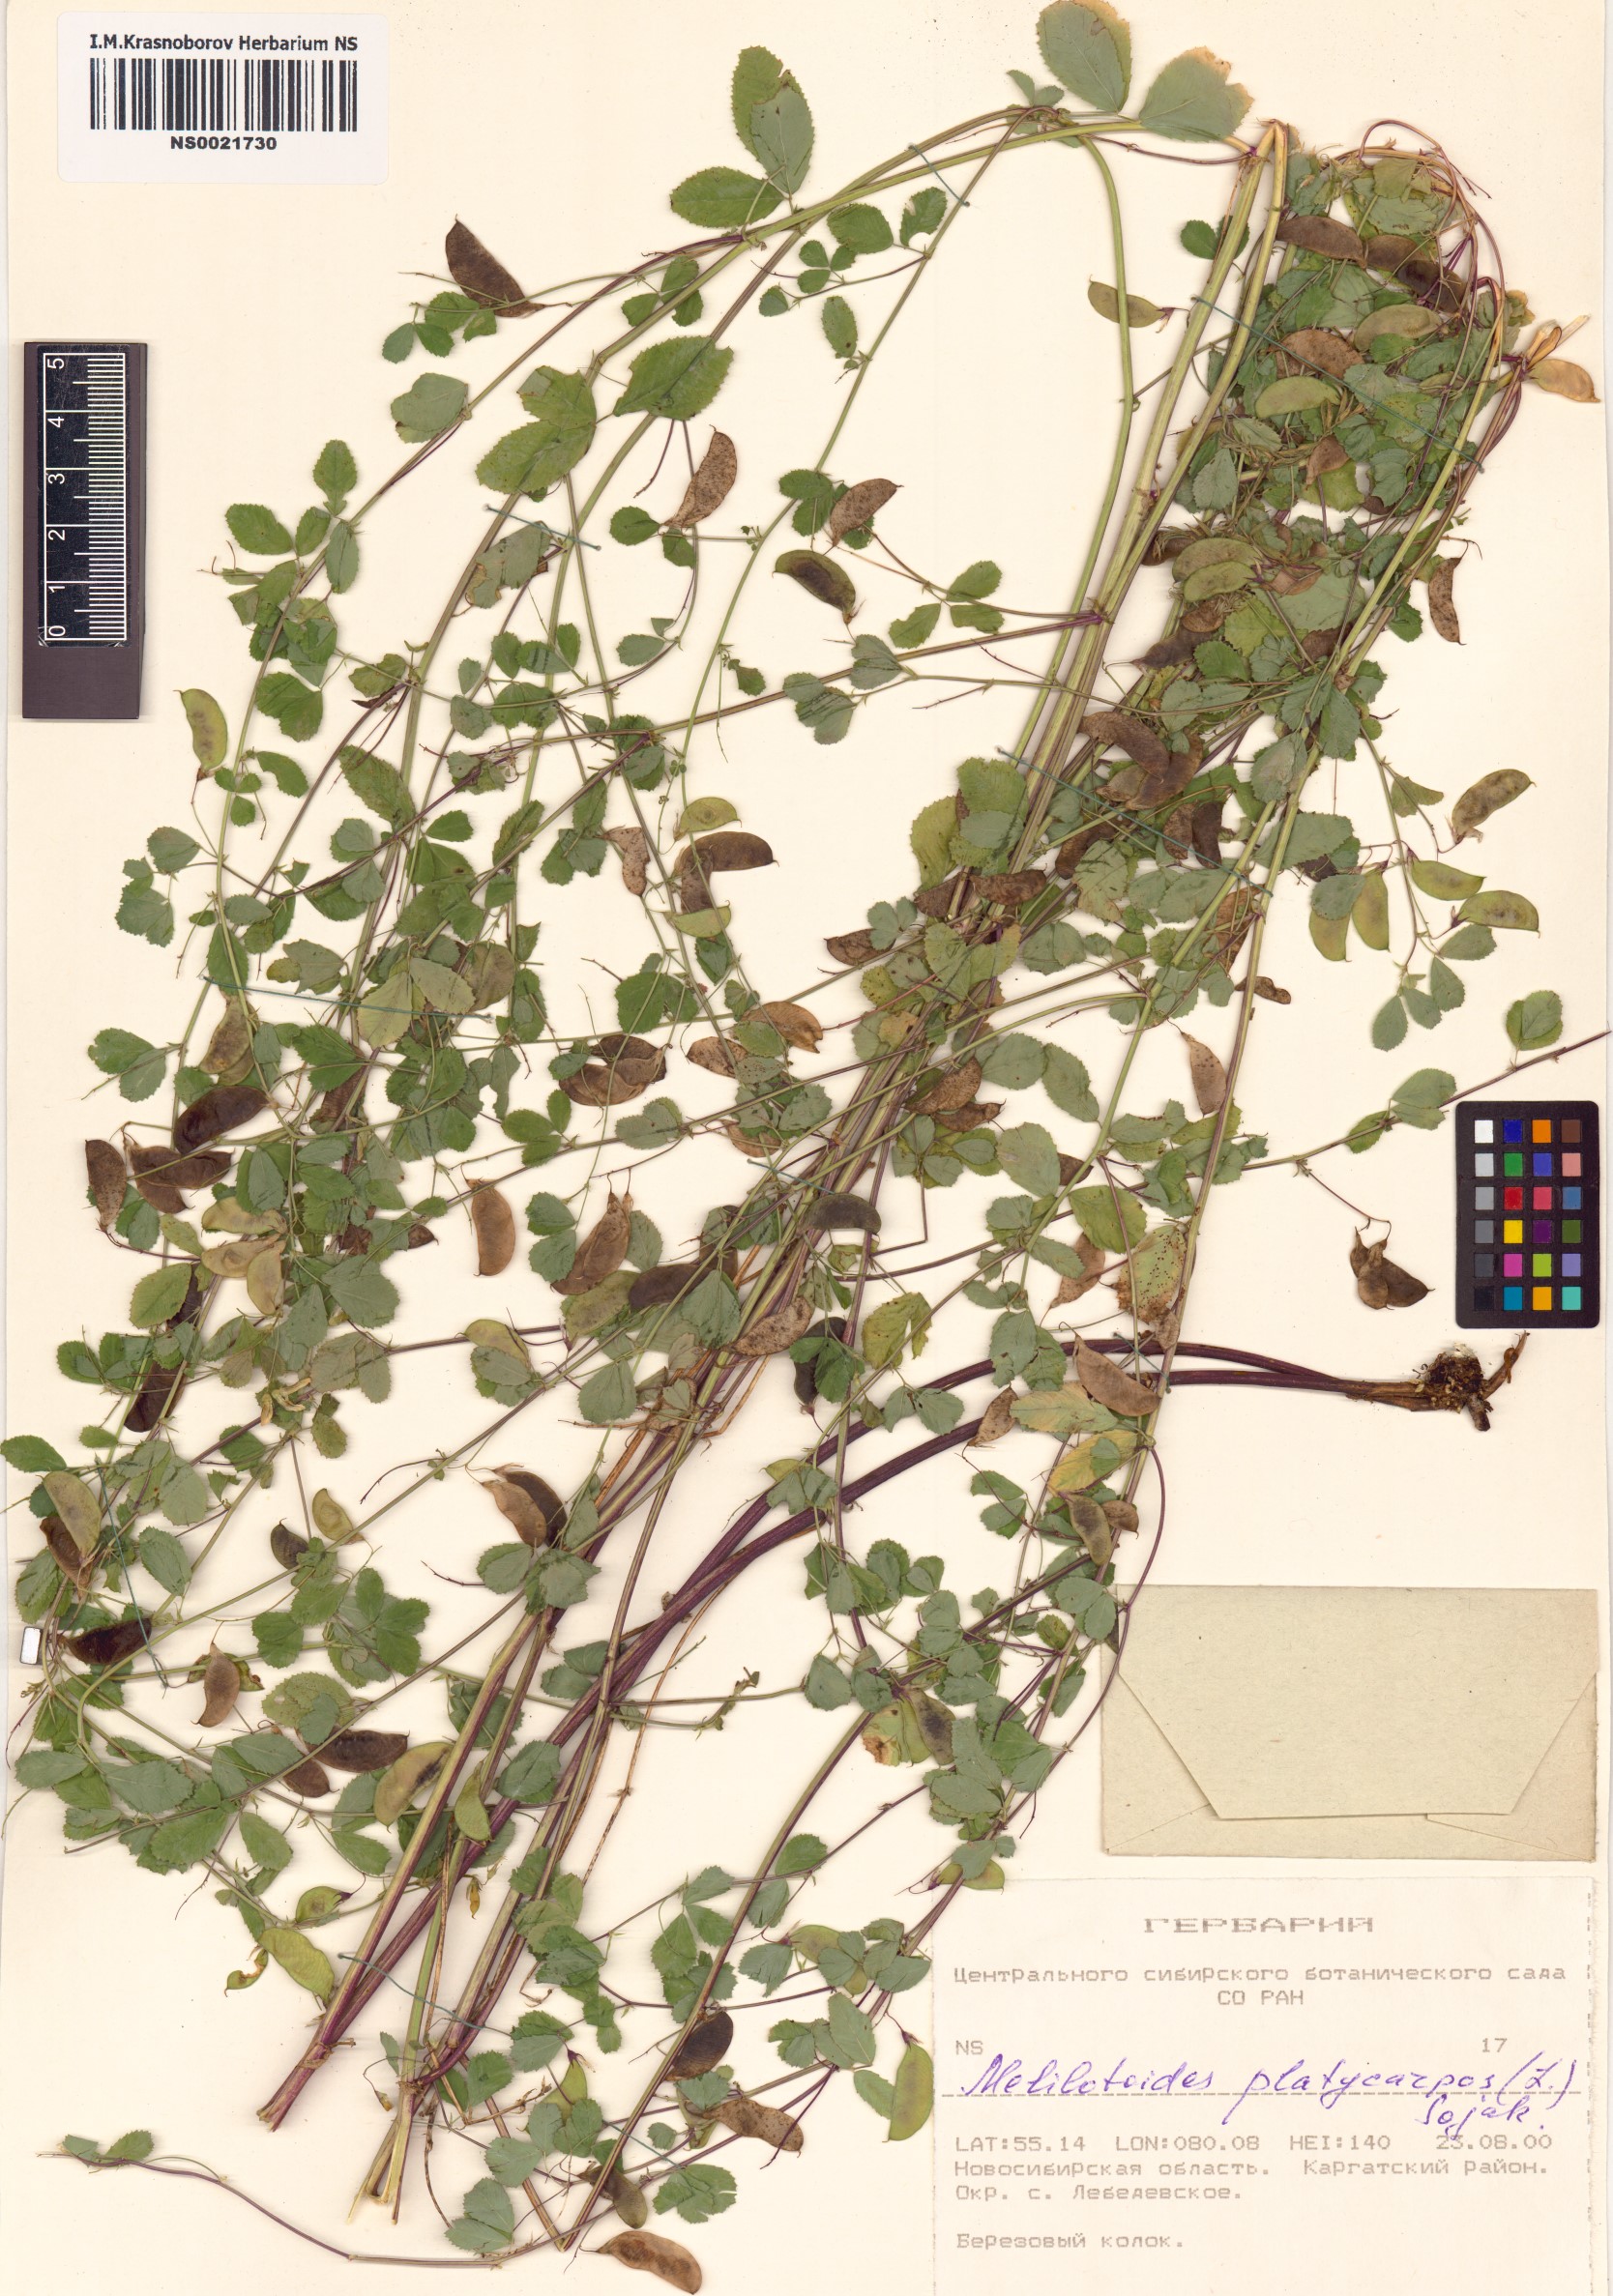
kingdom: Plantae
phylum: Tracheophyta
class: Magnoliopsida
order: Fabales
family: Fabaceae
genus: Medicago
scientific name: Medicago platycarpos
